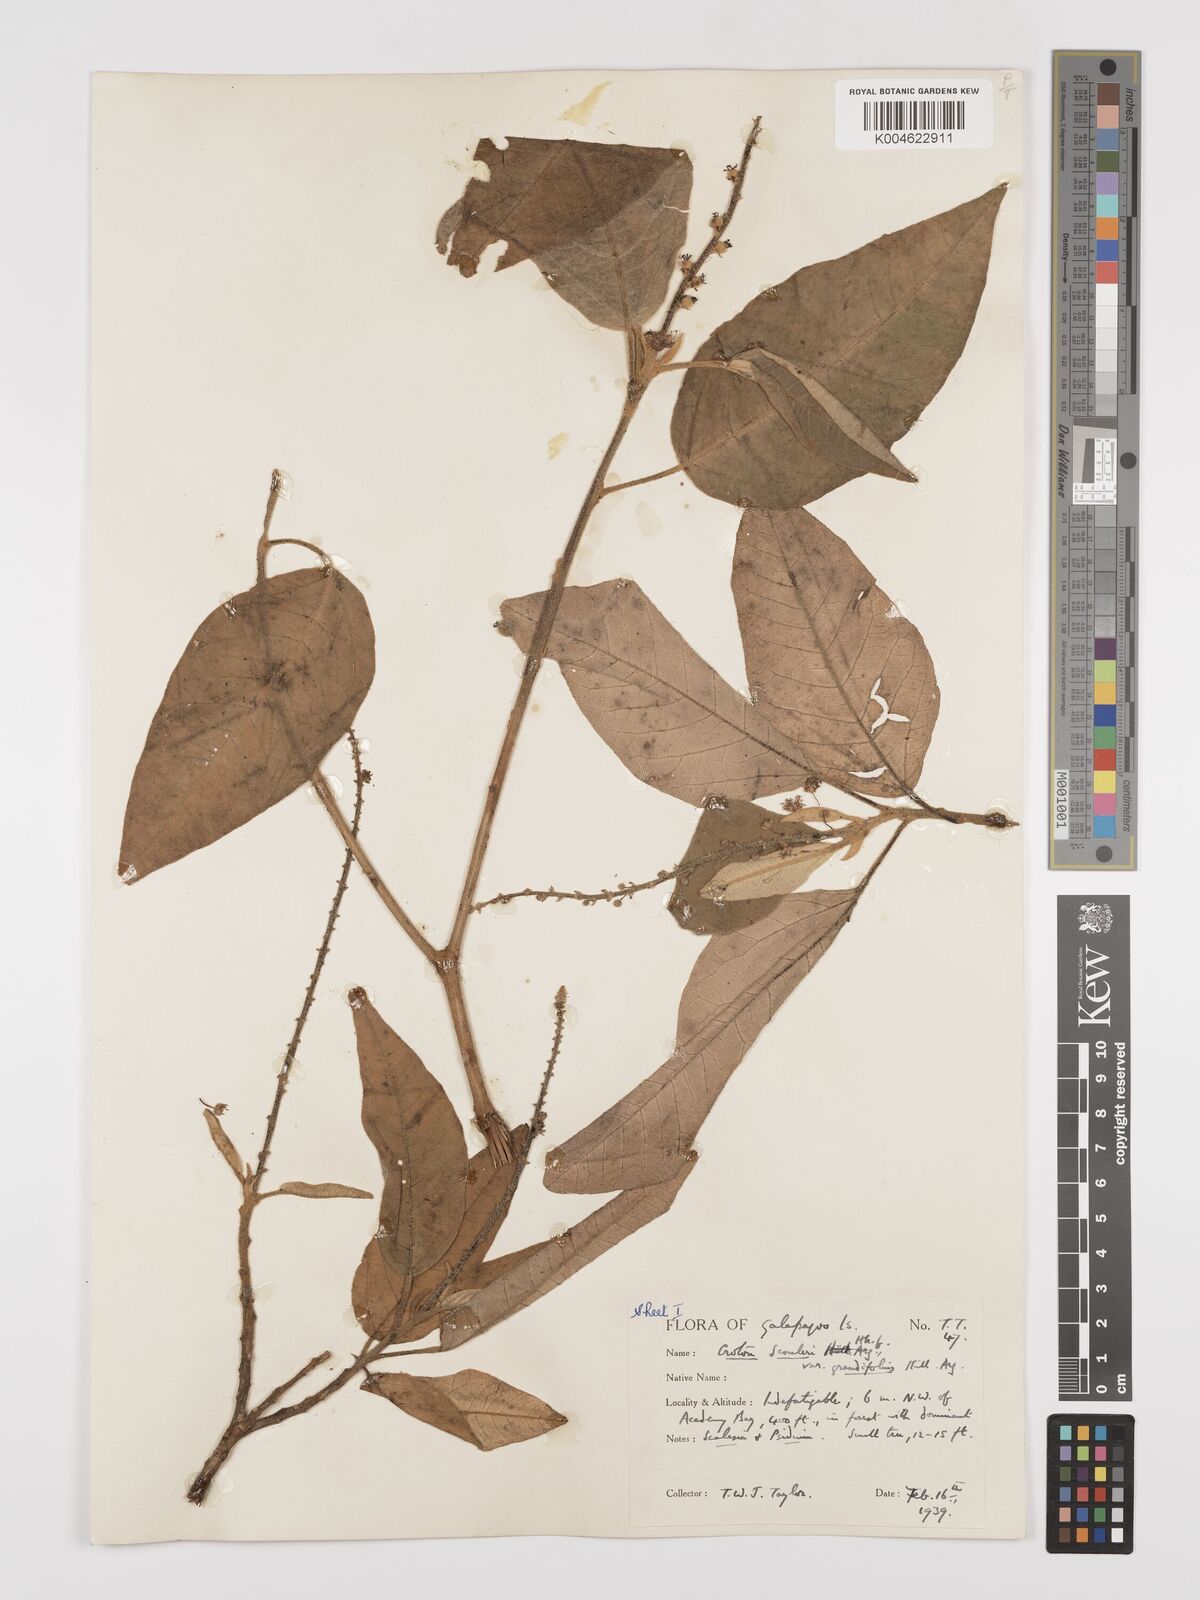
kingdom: Plantae
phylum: Tracheophyta
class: Magnoliopsida
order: Malpighiales
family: Euphorbiaceae
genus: Croton
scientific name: Croton scouleri
